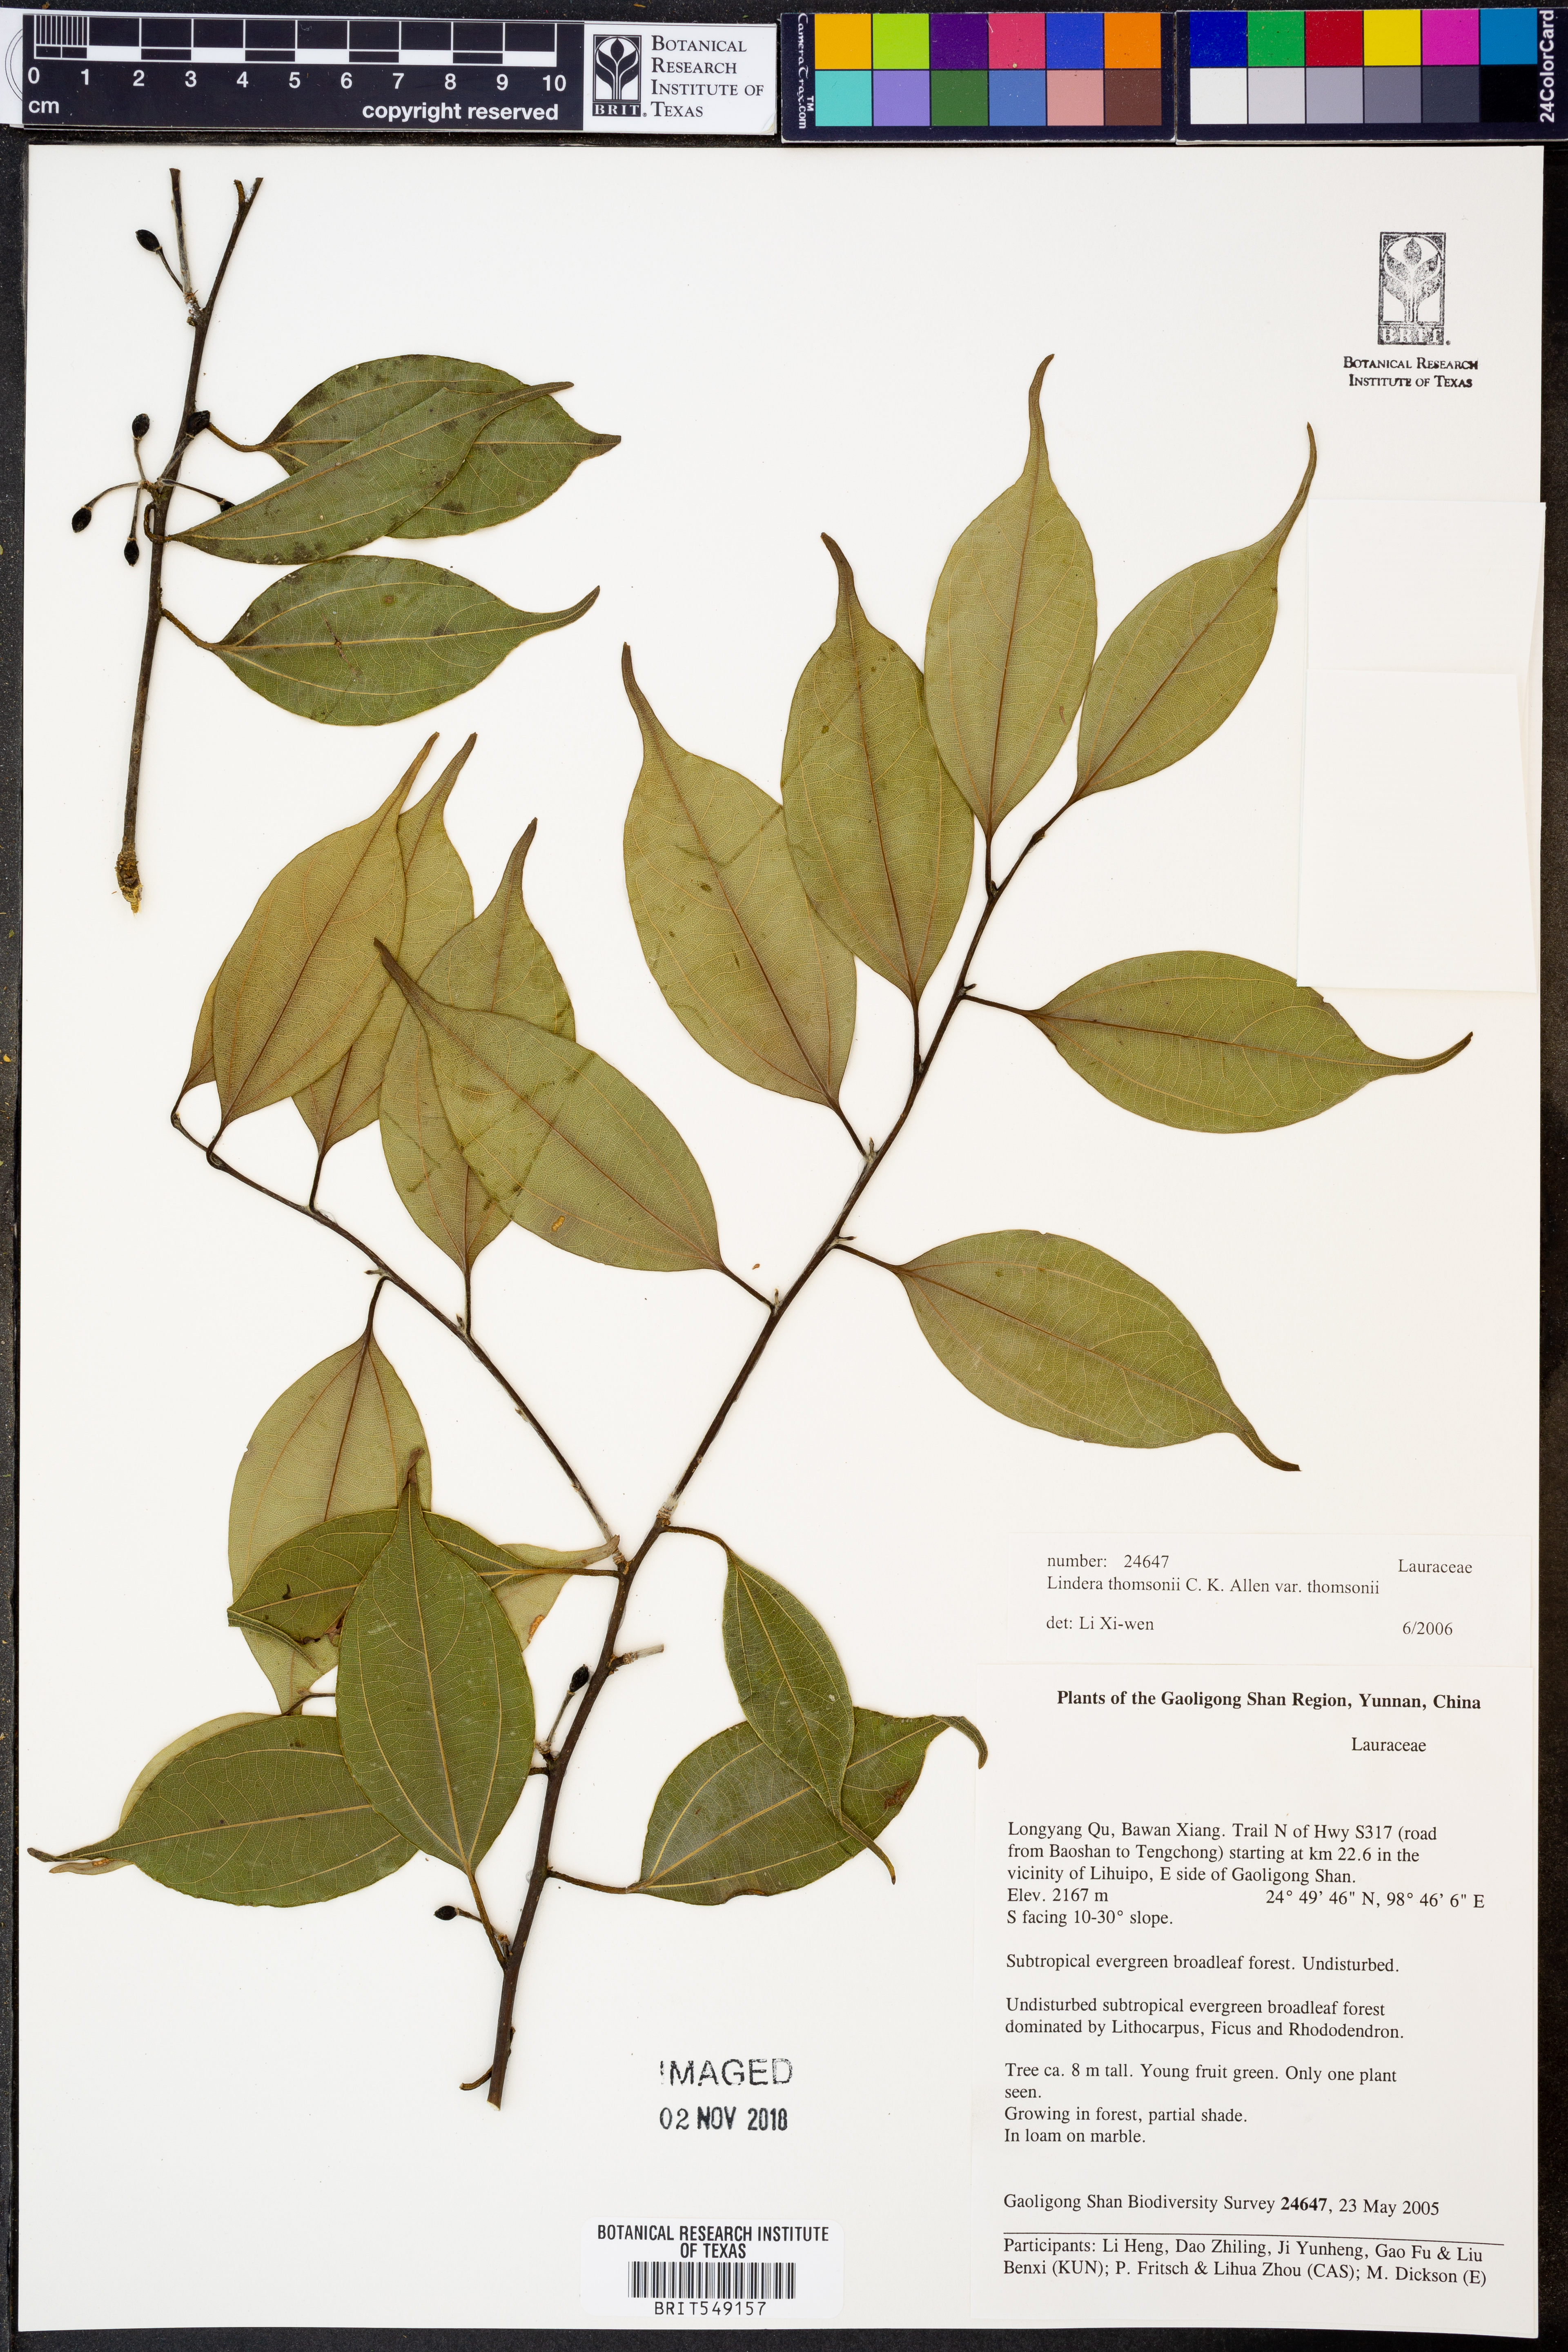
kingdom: Plantae
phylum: Tracheophyta
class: Magnoliopsida
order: Laurales
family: Lauraceae
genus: Lindera
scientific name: Lindera thomsonii
